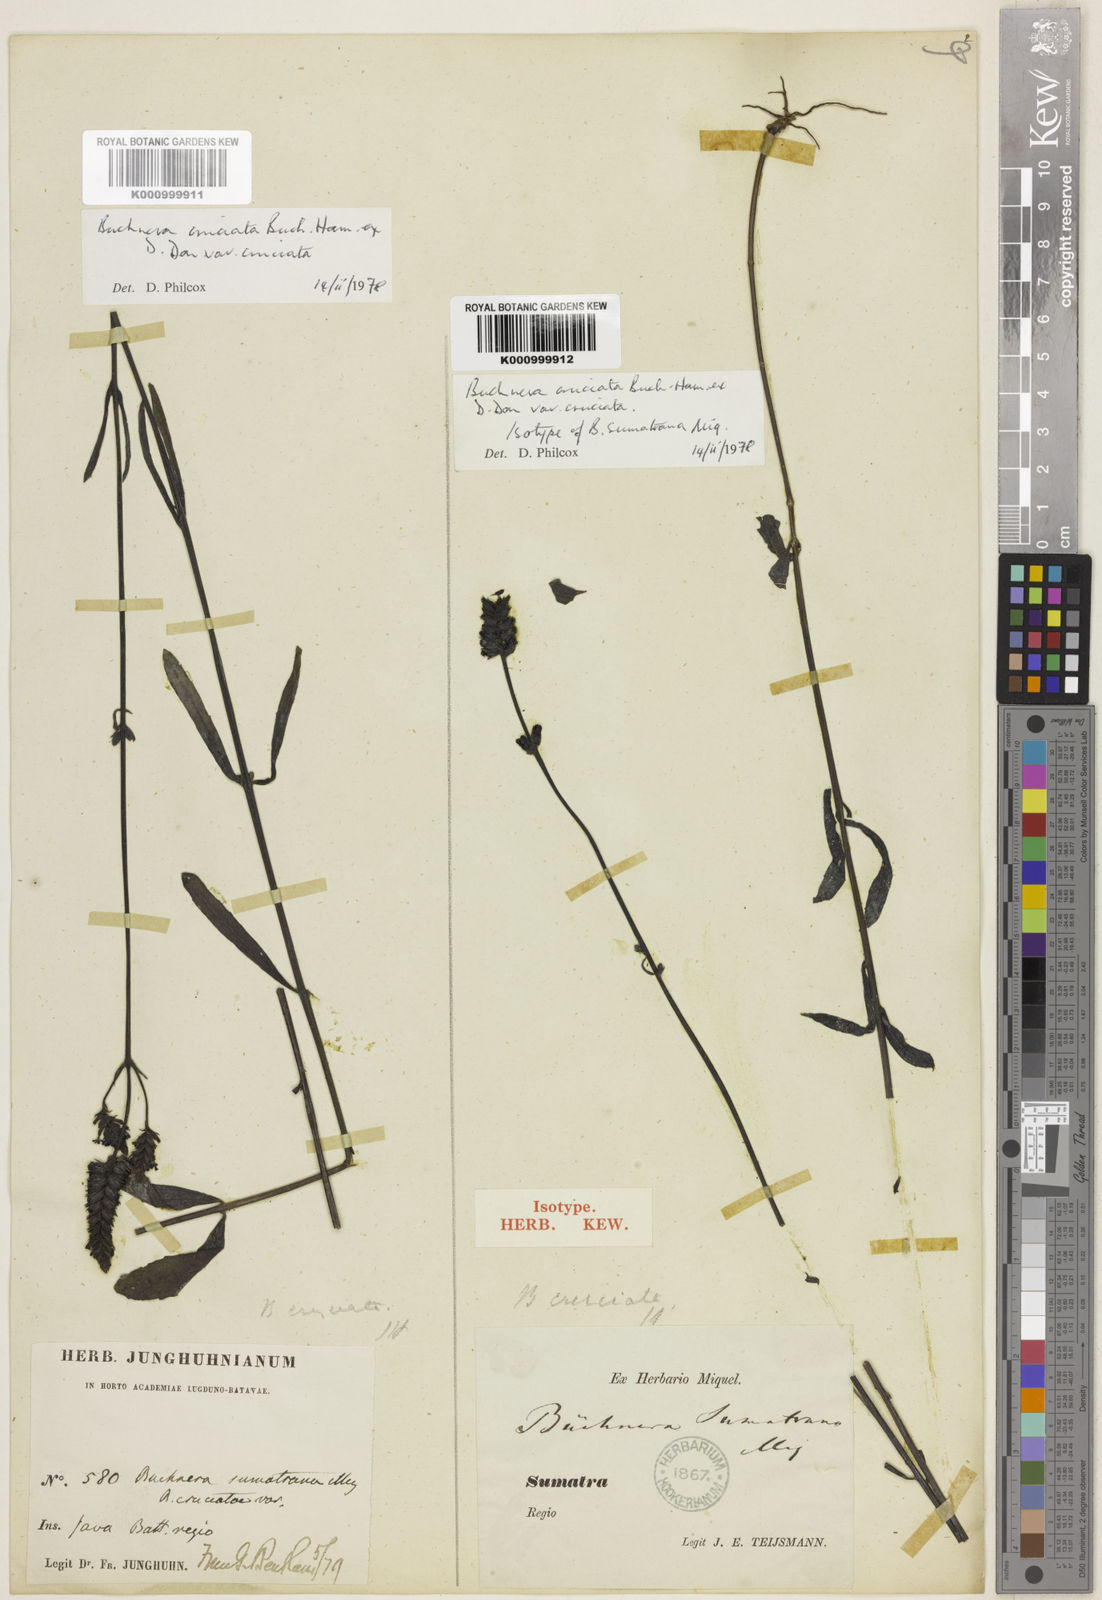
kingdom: Plantae
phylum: Tracheophyta
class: Magnoliopsida
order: Lamiales
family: Orobanchaceae
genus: Buchnera
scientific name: Buchnera cruciata
